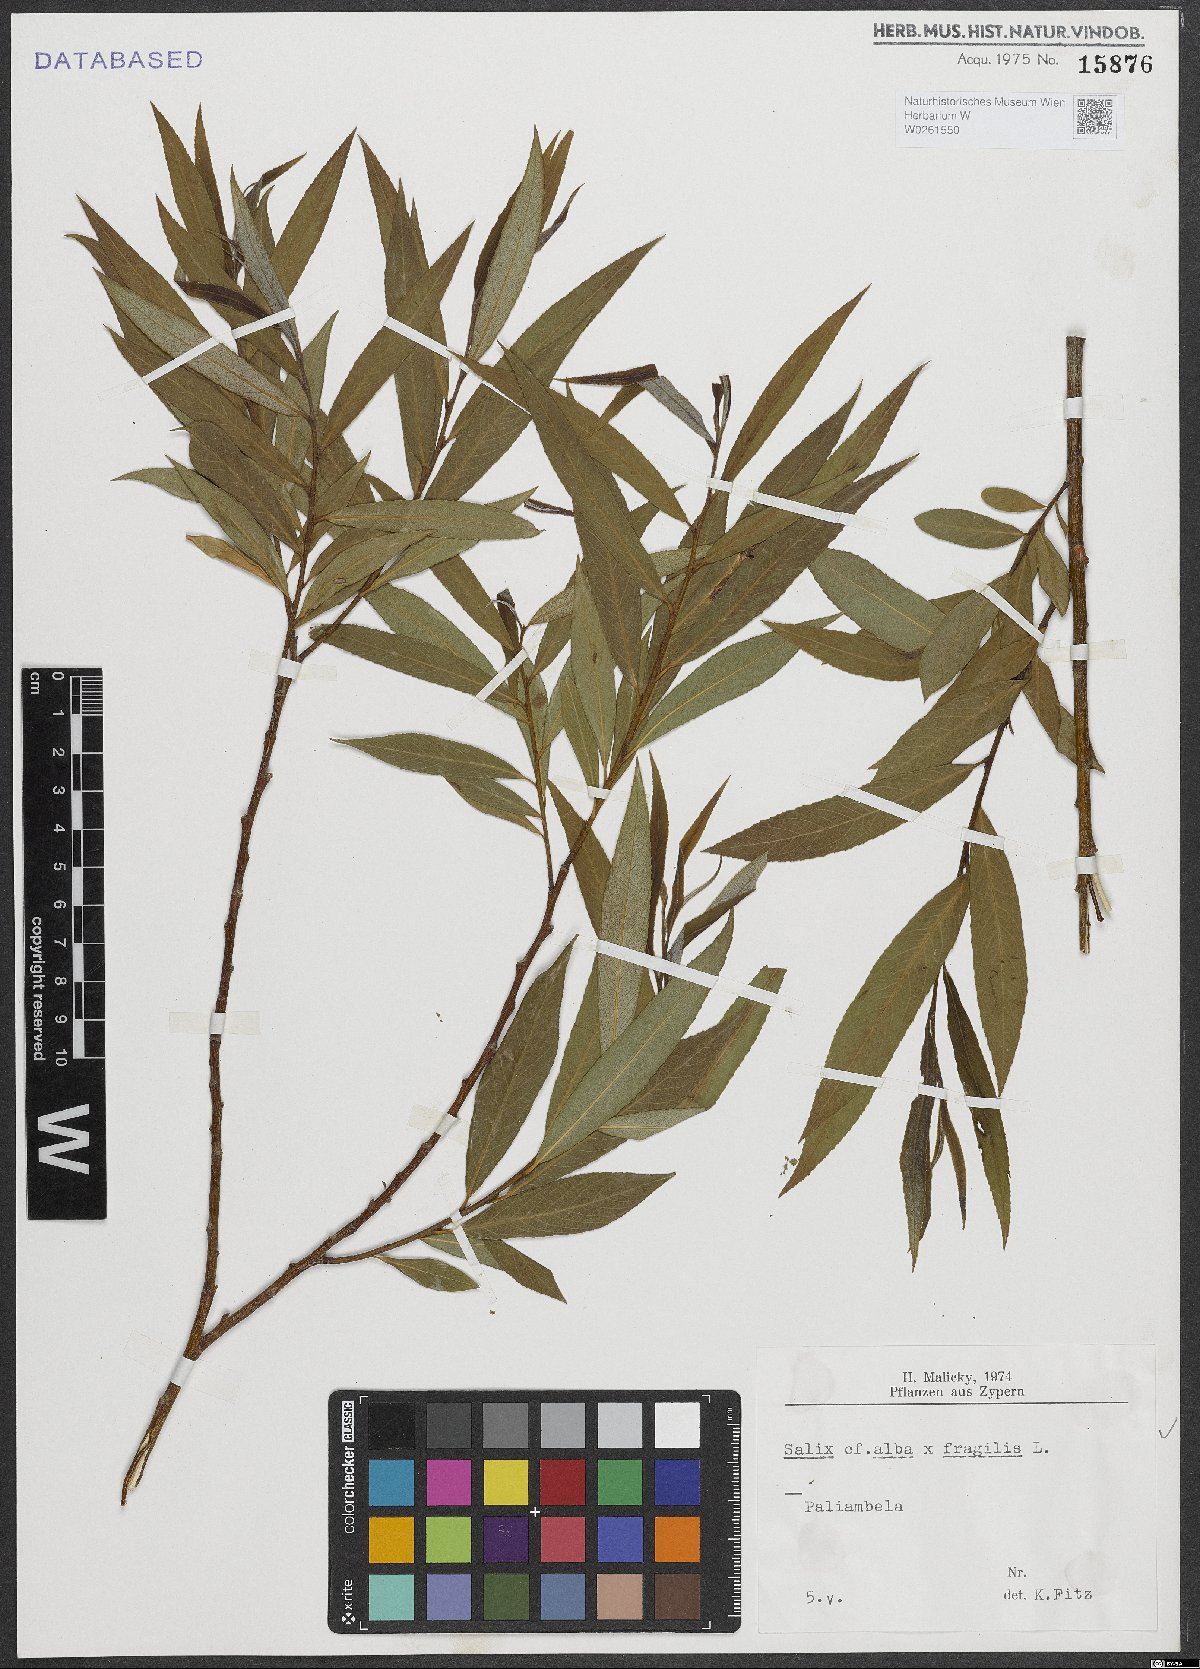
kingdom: Plantae
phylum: Tracheophyta
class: Magnoliopsida
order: Malpighiales
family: Salicaceae
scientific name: Salicaceae
